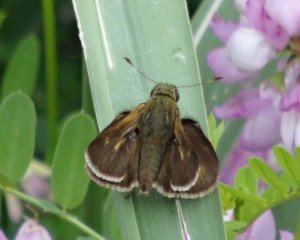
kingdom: Animalia
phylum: Arthropoda
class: Insecta
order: Lepidoptera
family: Hesperiidae
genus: Polites
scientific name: Polites themistocles
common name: Tawny-edged Skipper
